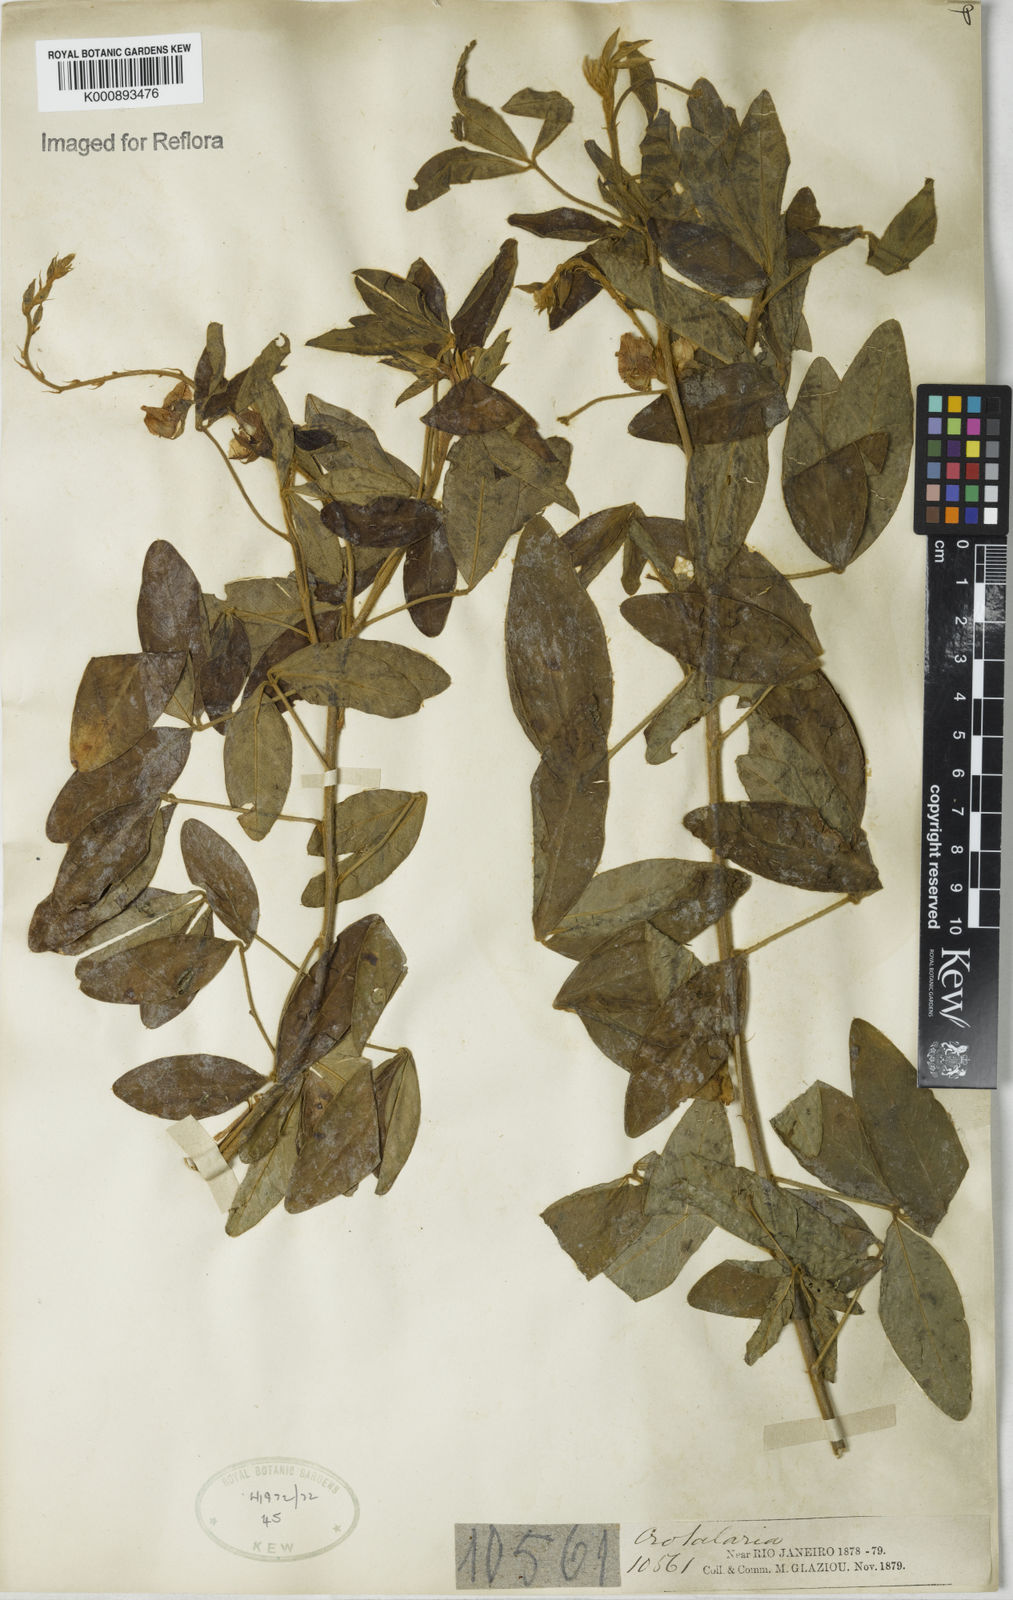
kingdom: Plantae
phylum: Tracheophyta
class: Magnoliopsida
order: Fabales
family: Fabaceae
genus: Crotalaria
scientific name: Crotalaria micans
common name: Caracas rattlebox
